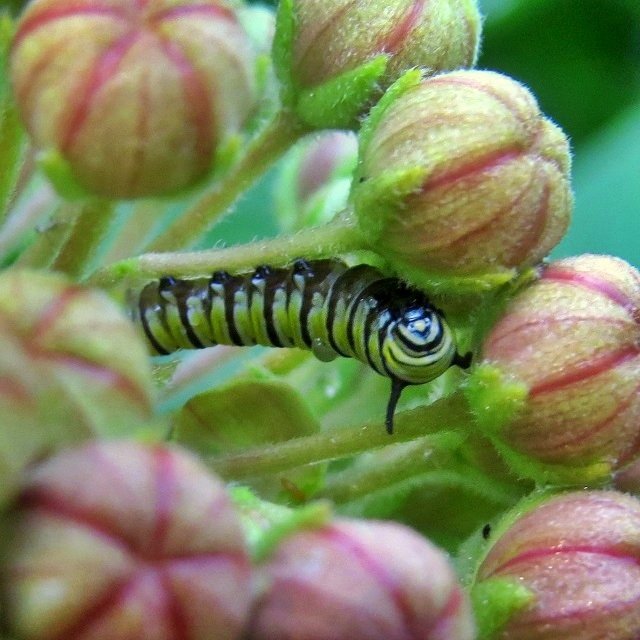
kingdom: Animalia
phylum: Arthropoda
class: Insecta
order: Lepidoptera
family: Nymphalidae
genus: Danaus
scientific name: Danaus plexippus
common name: Monarch
